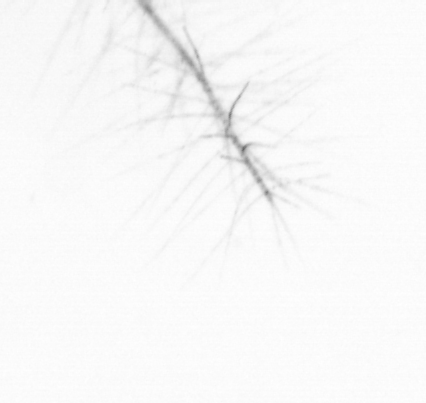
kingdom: Chromista
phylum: Ochrophyta
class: Bacillariophyceae
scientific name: Bacillariophyceae
